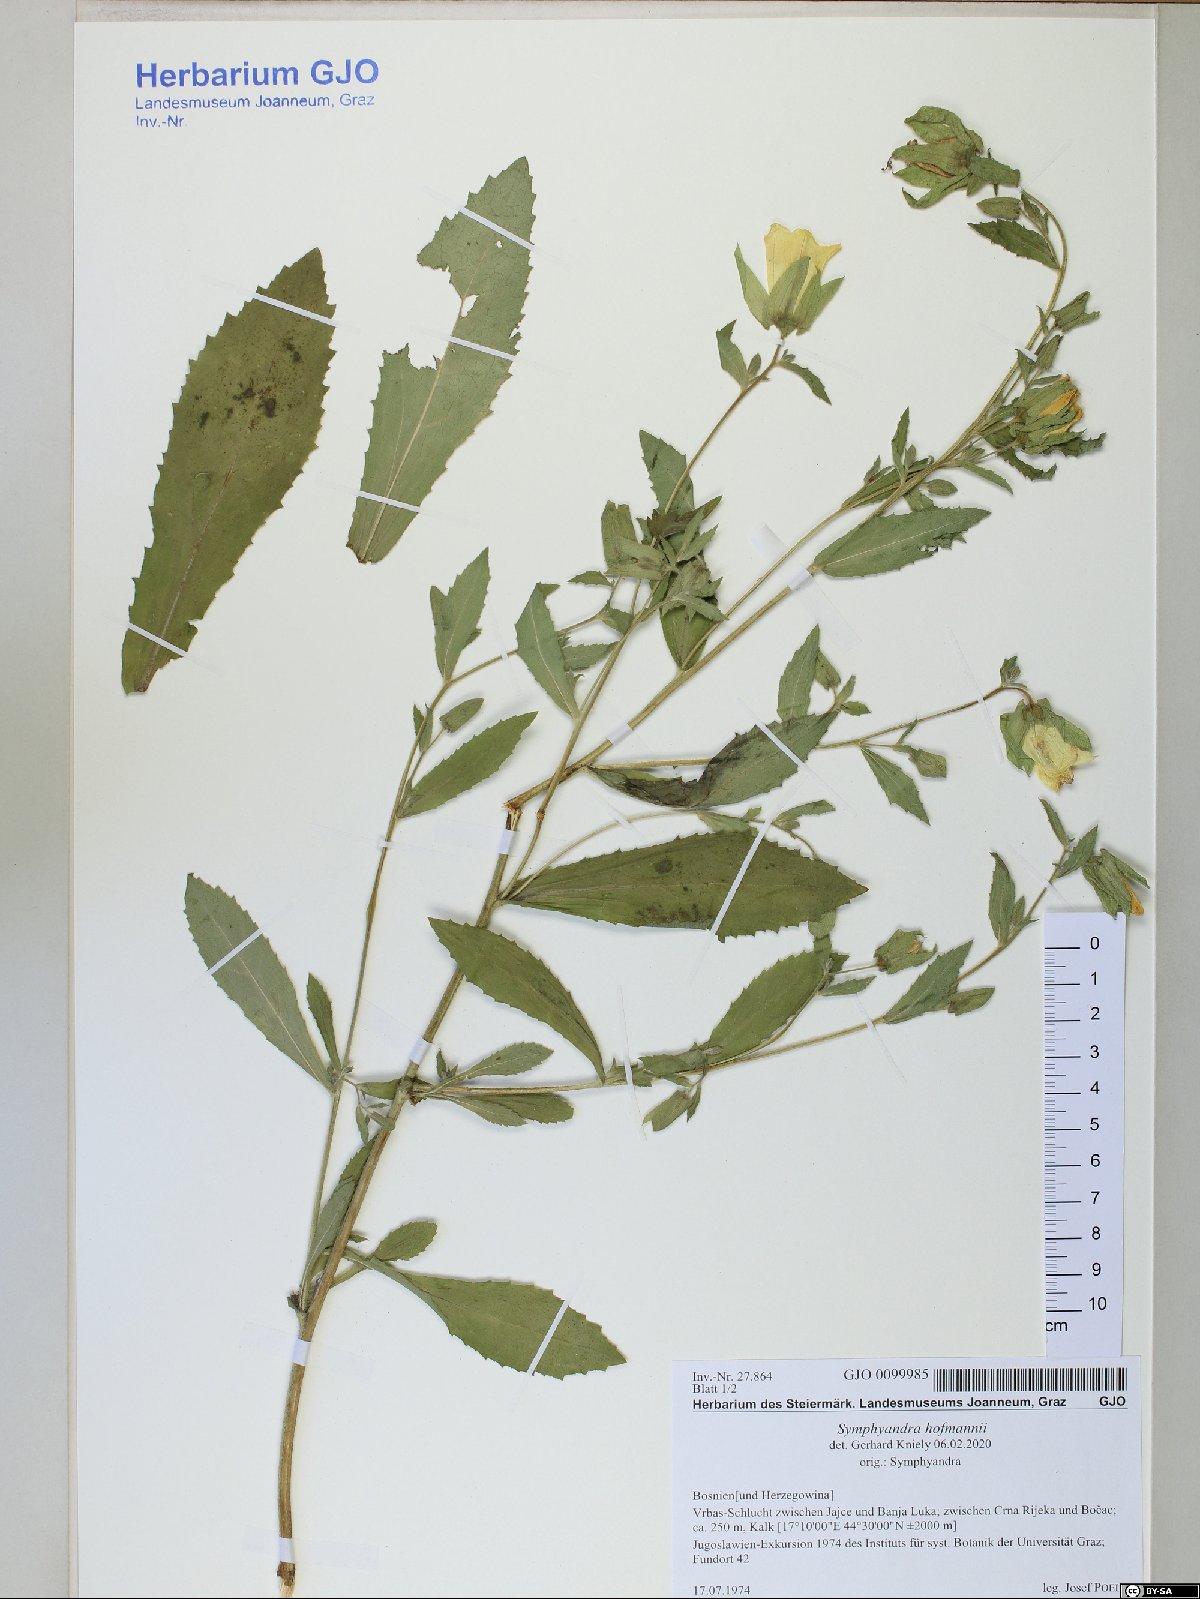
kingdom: Plantae
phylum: Tracheophyta
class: Magnoliopsida
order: Asterales
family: Campanulaceae
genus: Campanula
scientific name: Campanula hofmannii
